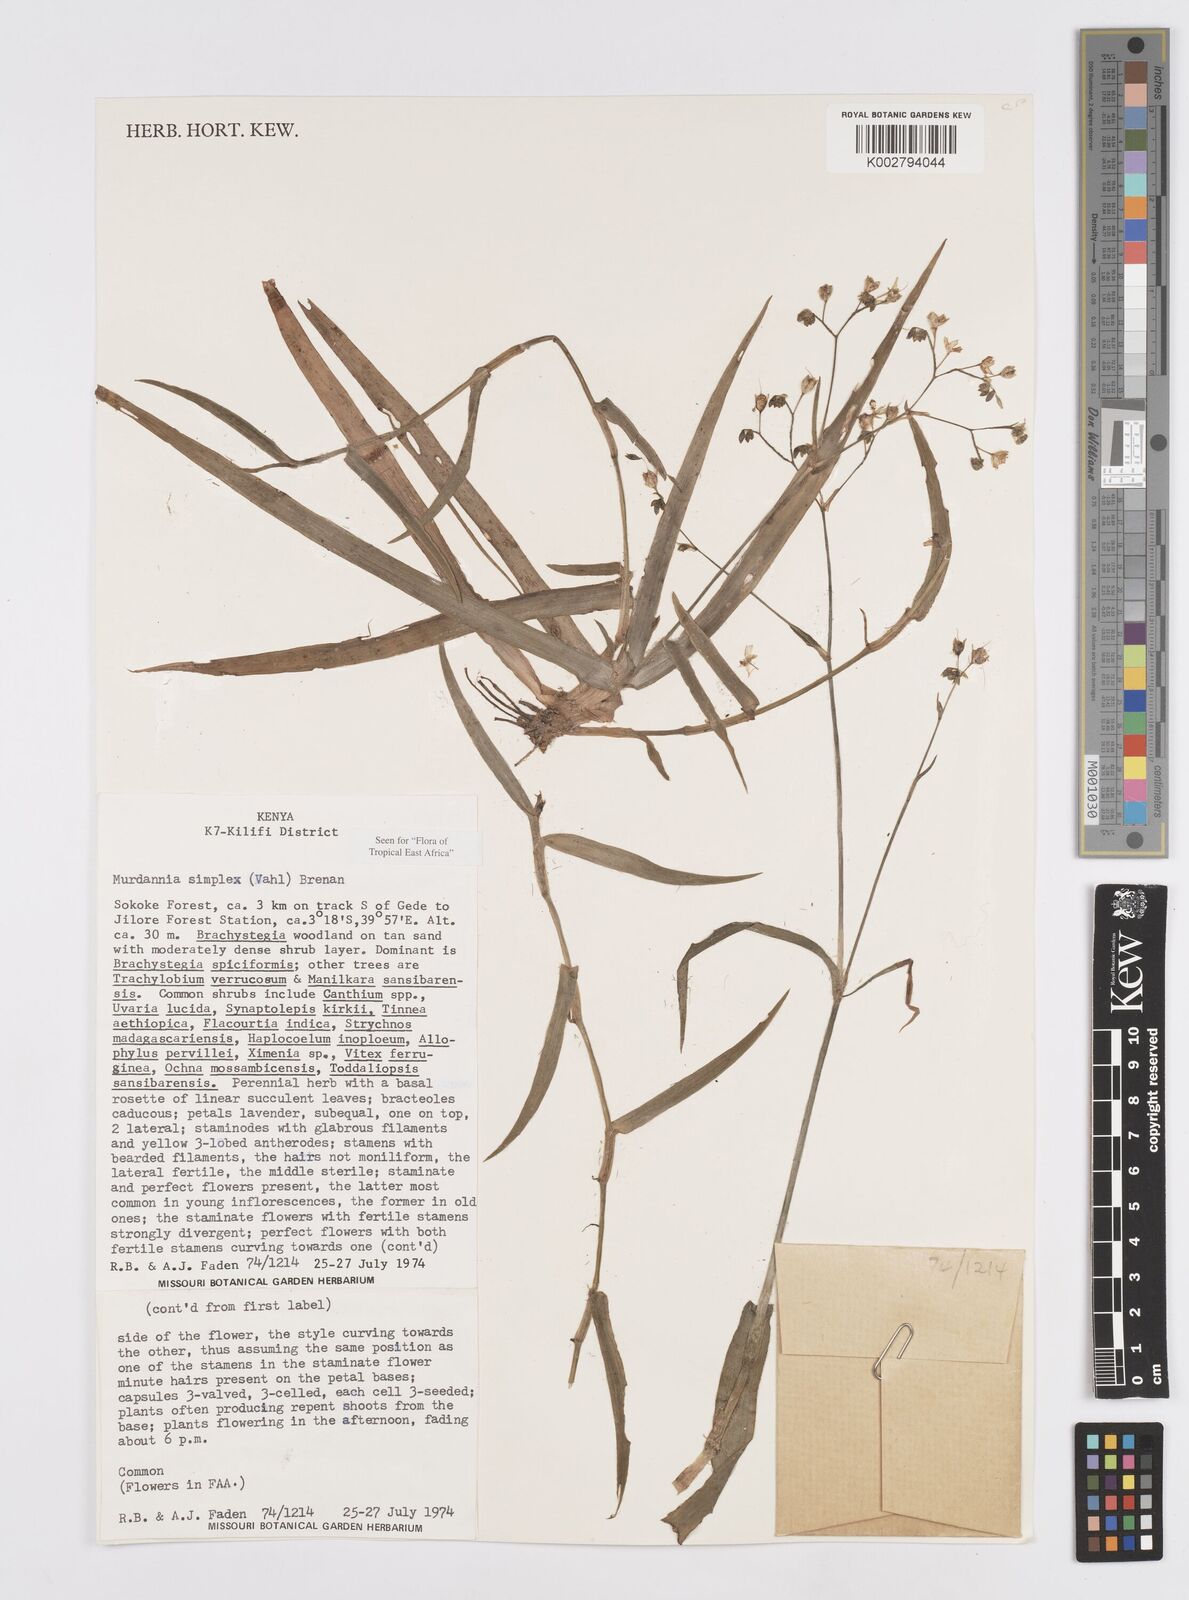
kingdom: Plantae
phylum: Tracheophyta
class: Liliopsida
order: Commelinales
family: Commelinaceae
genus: Murdannia
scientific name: Murdannia simplex
